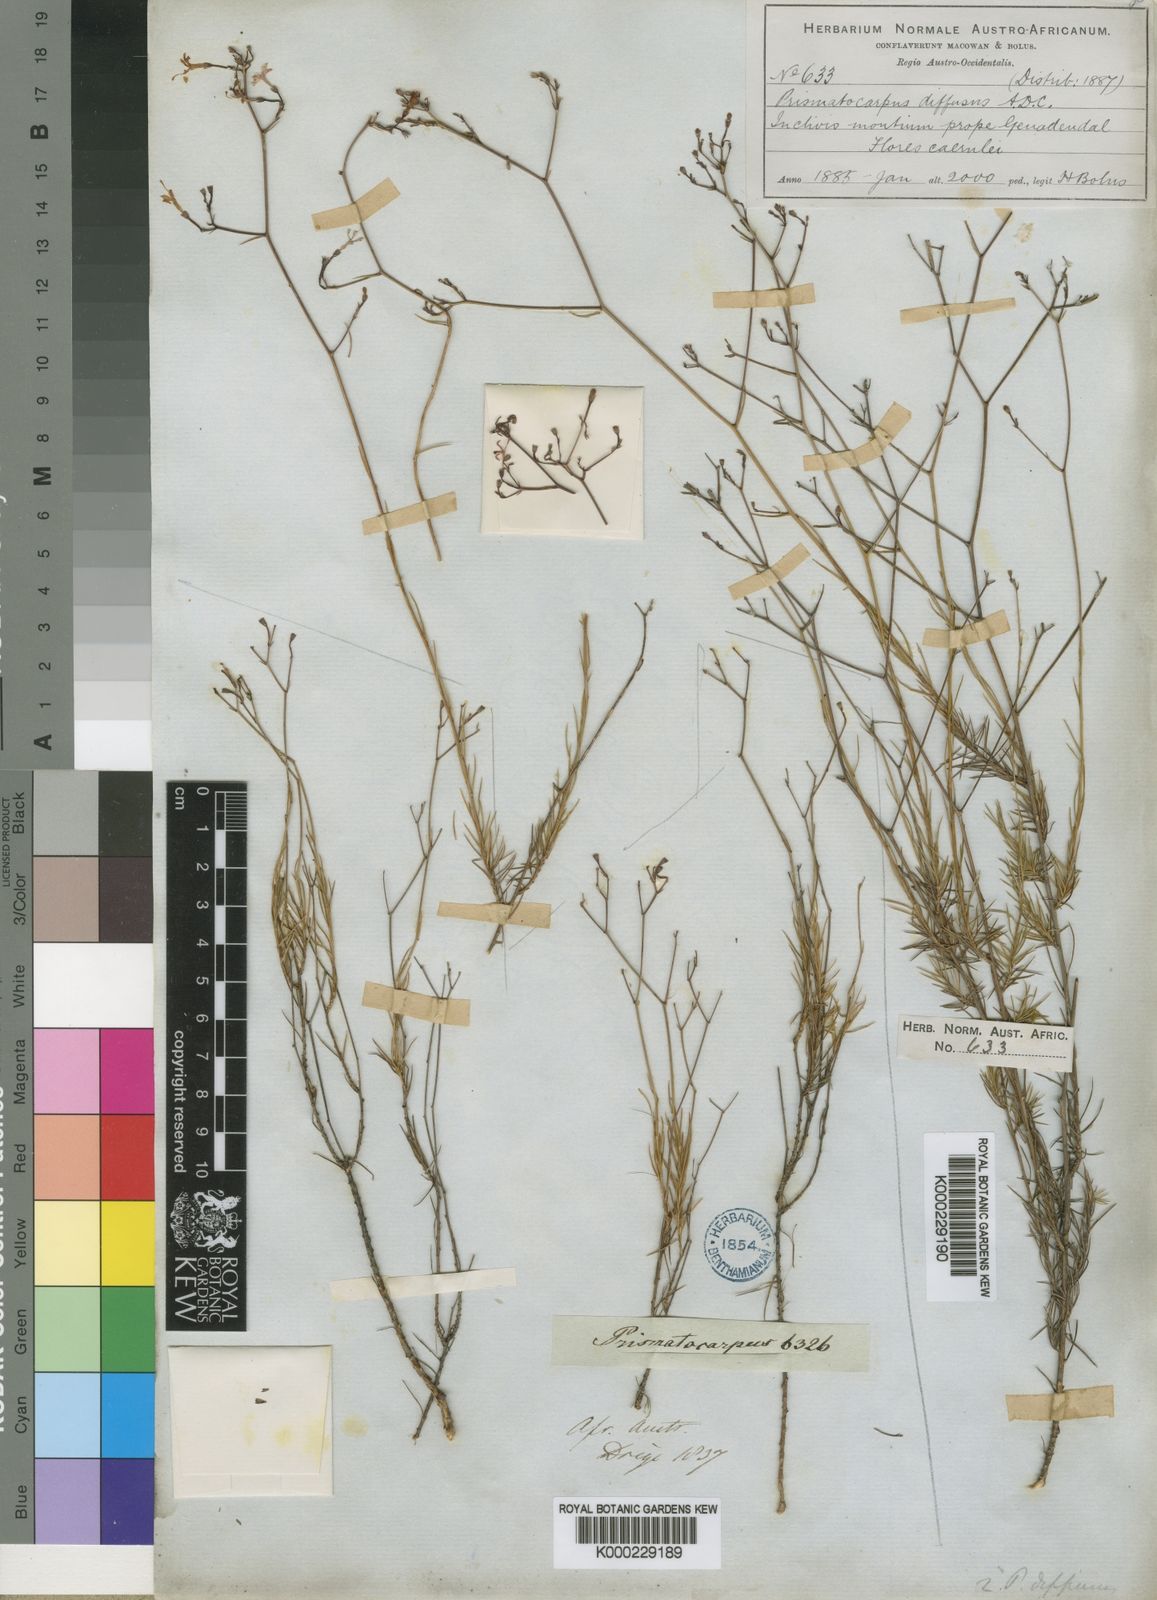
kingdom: Plantae
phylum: Tracheophyta
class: Magnoliopsida
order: Asterales
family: Campanulaceae
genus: Prismatocarpus
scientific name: Prismatocarpus diffusus
